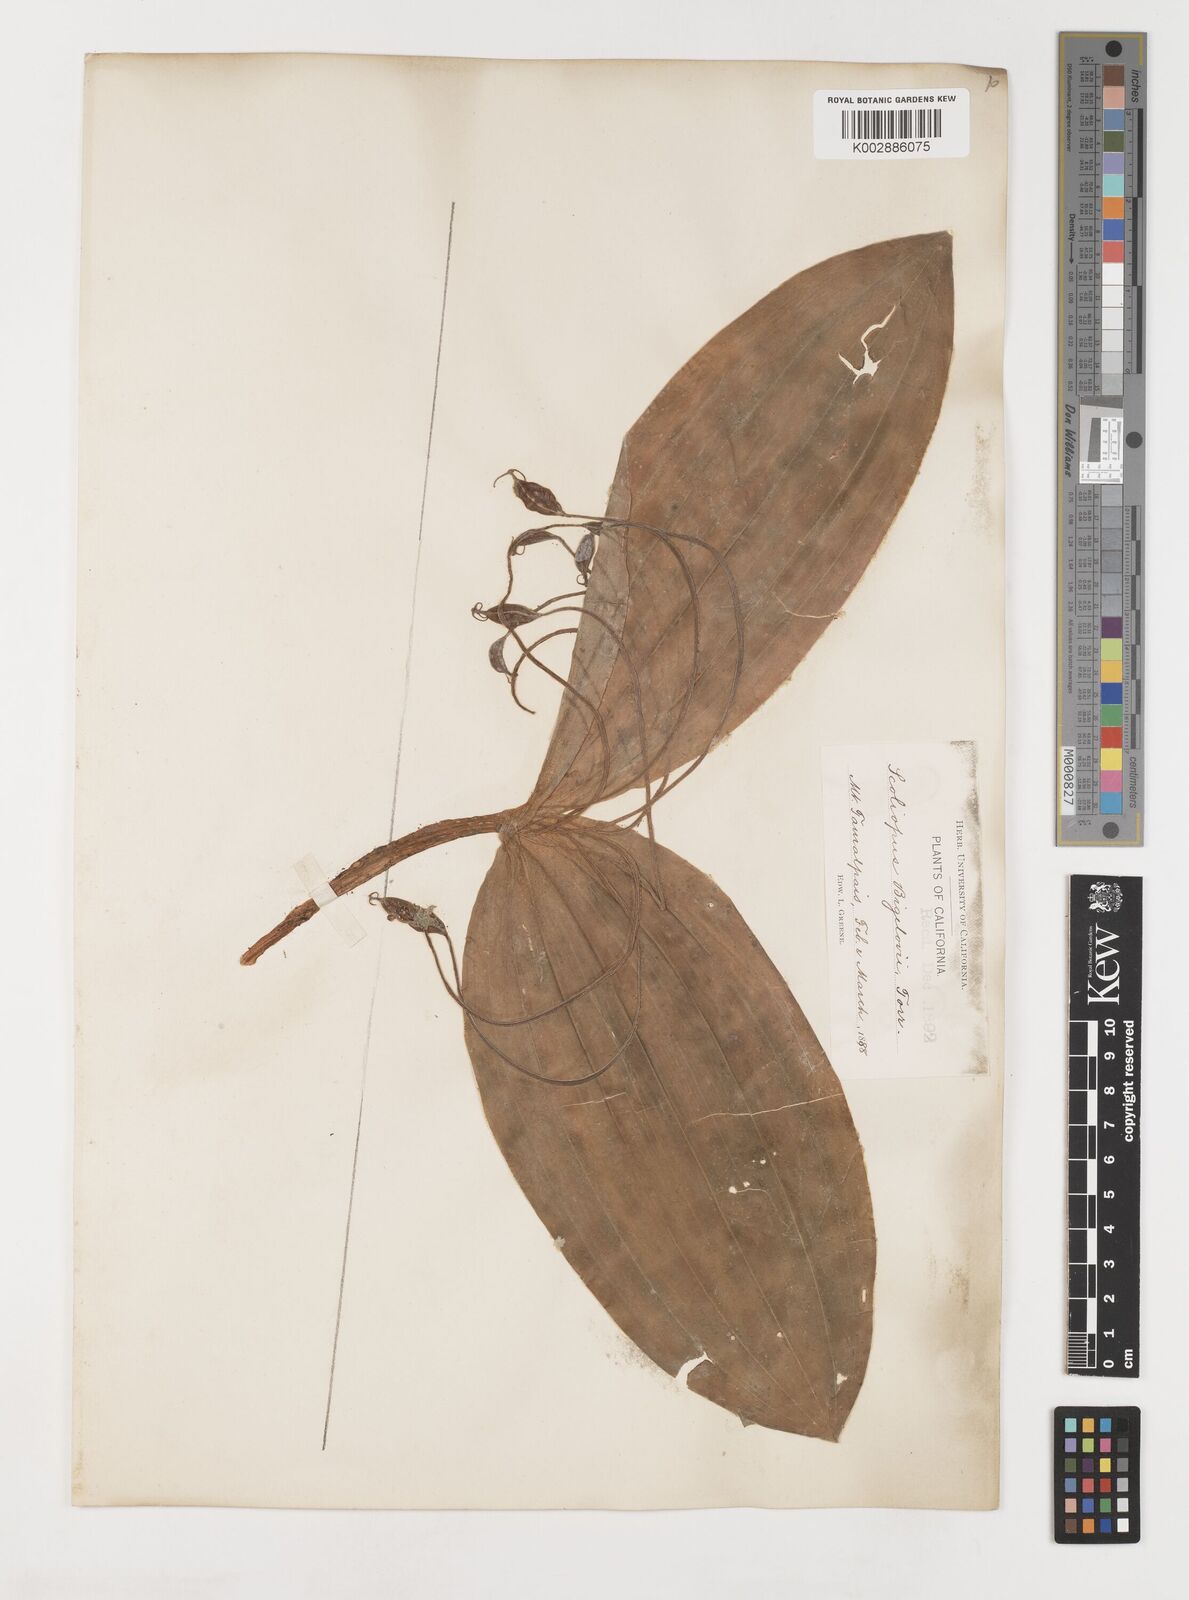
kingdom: Plantae
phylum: Tracheophyta
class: Liliopsida
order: Liliales
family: Liliaceae
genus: Scoliopus
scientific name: Scoliopus bigelovii
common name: Foetid adder's-tongue
